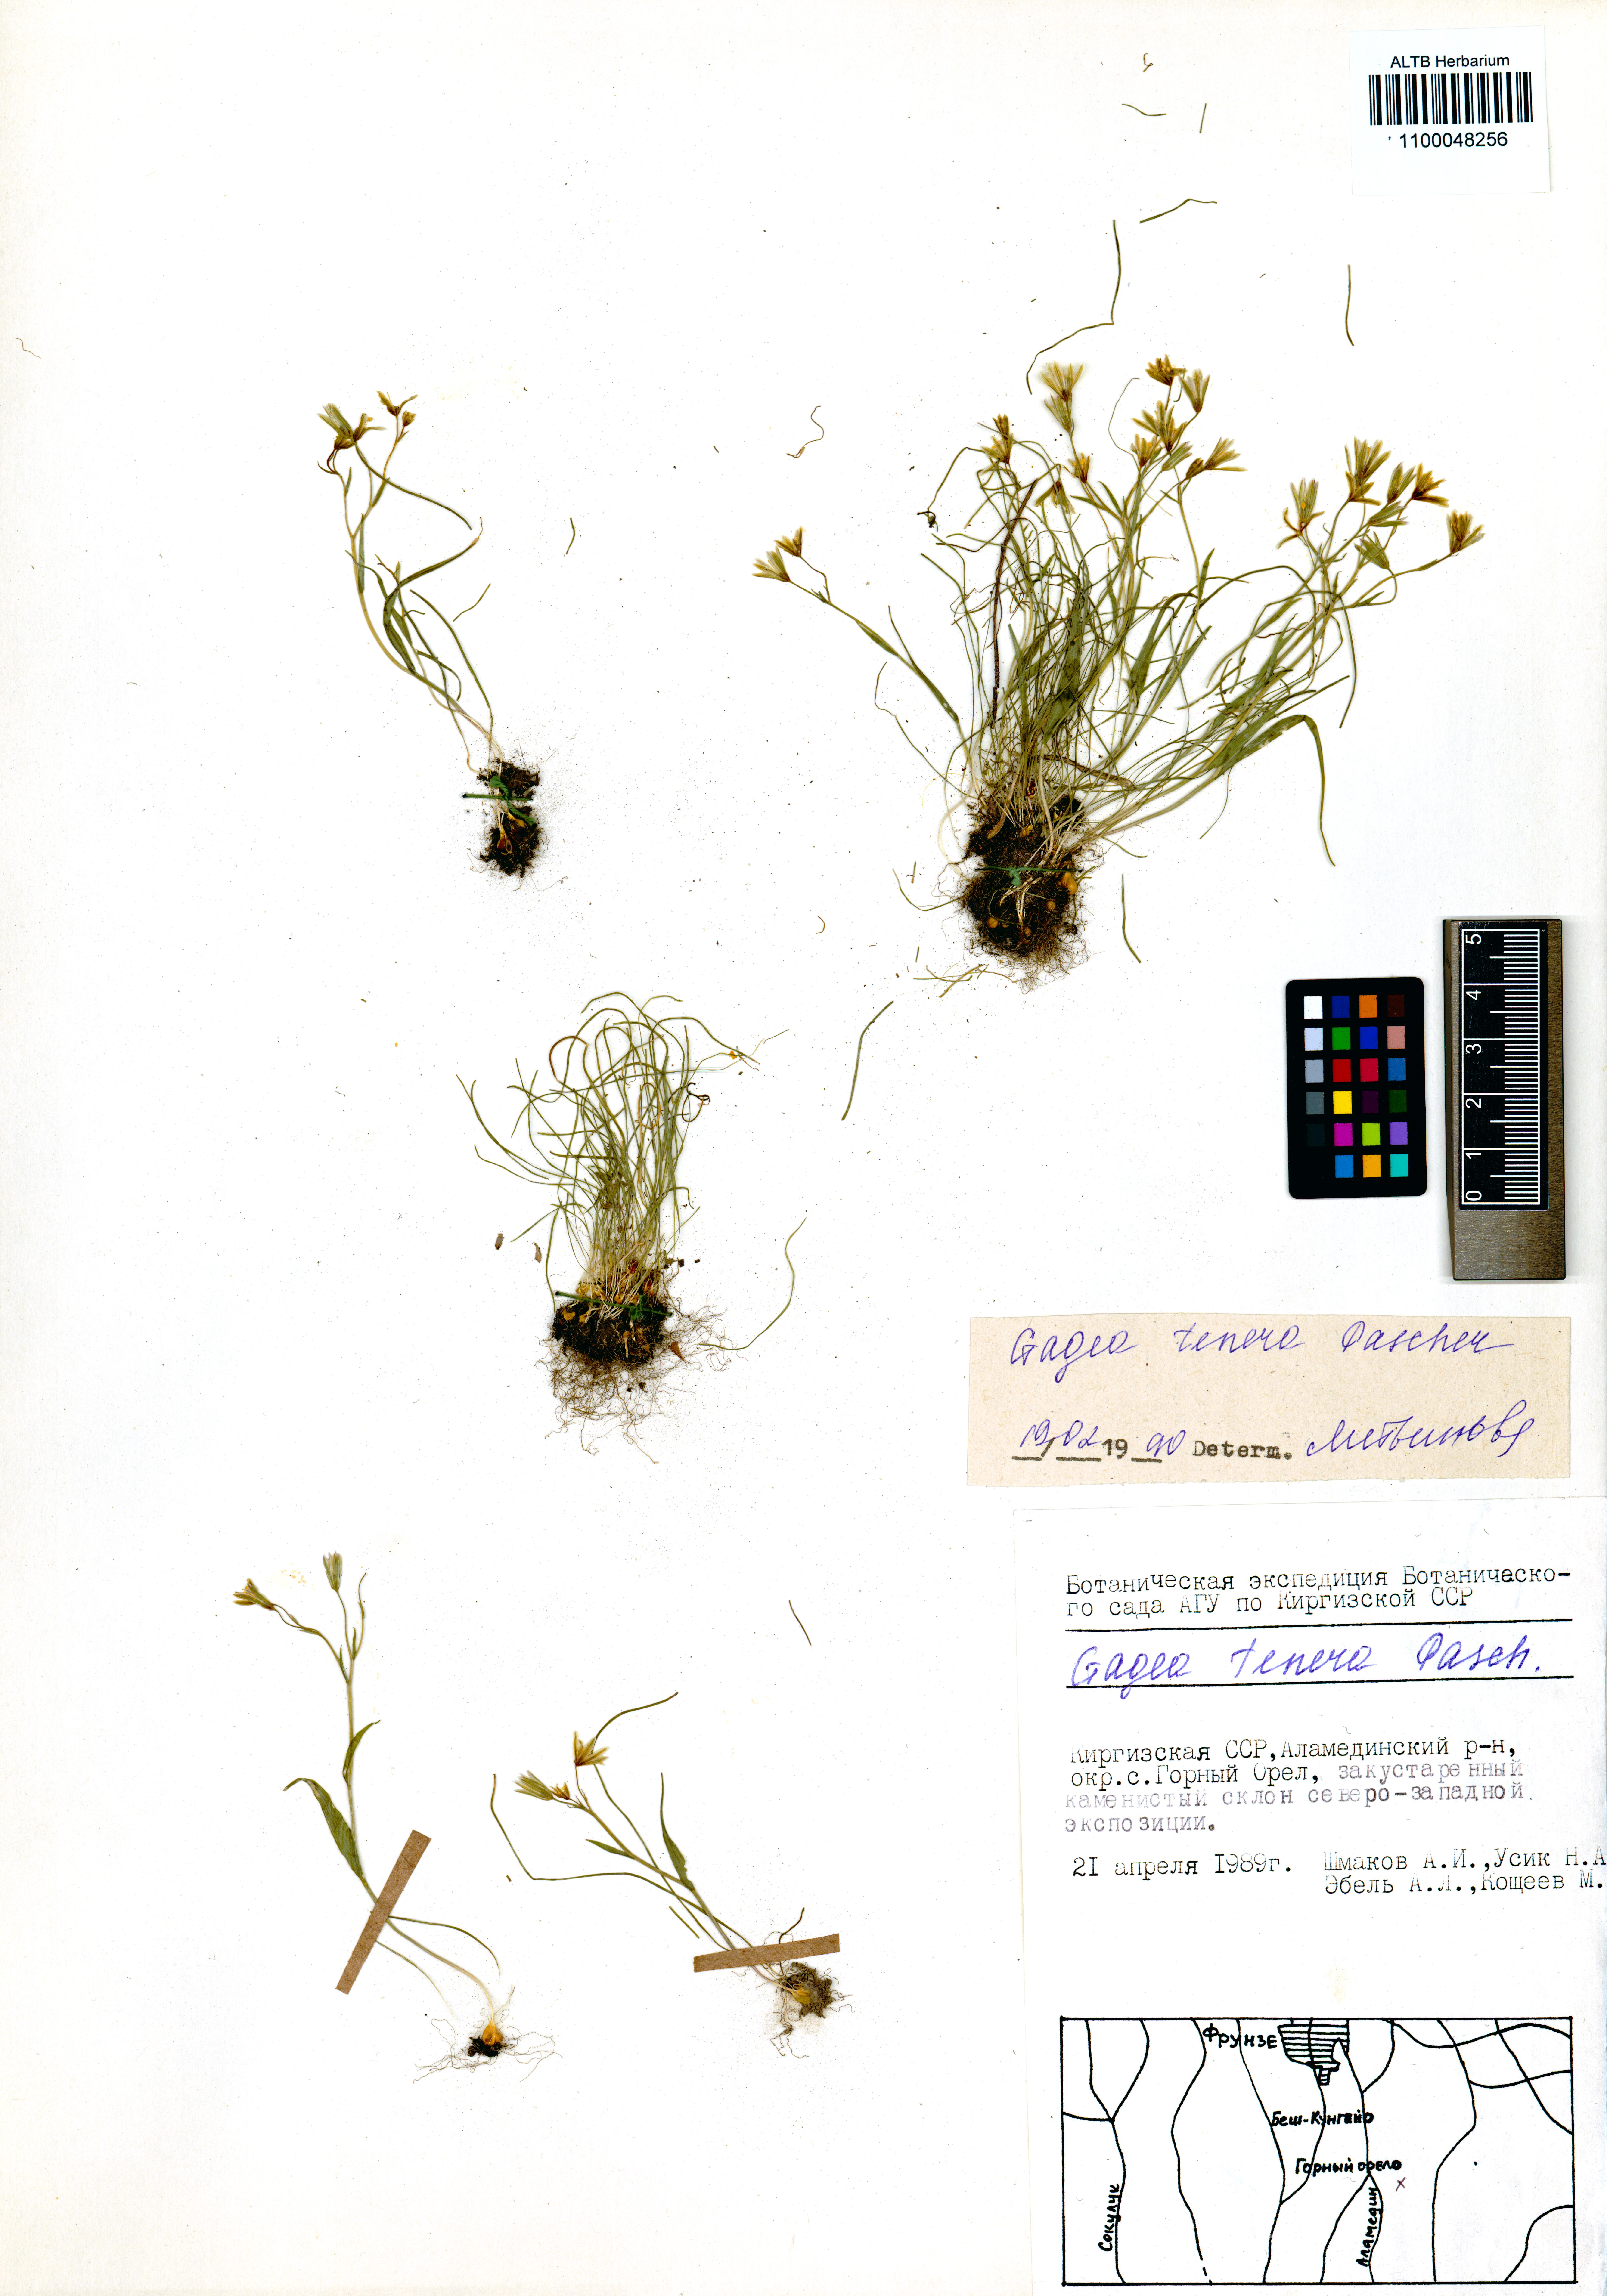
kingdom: Plantae
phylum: Tracheophyta
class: Liliopsida
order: Liliales
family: Liliaceae
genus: Gagea
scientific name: Gagea tenera
